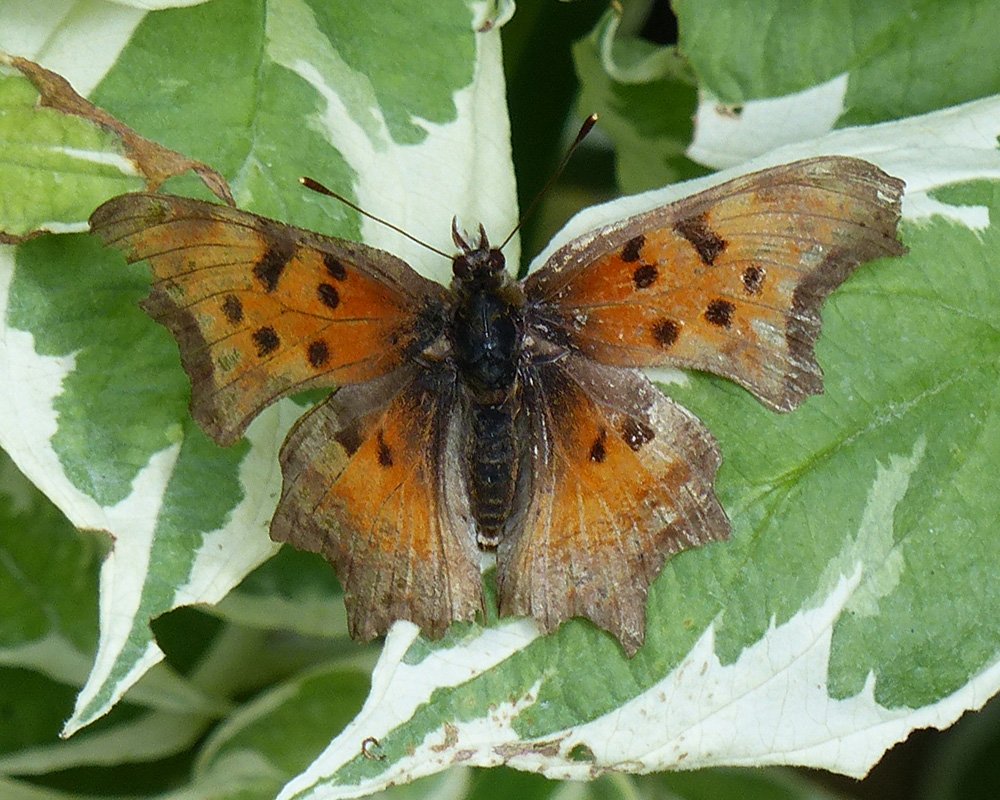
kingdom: Animalia
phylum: Arthropoda
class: Insecta
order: Lepidoptera
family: Nymphalidae
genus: Polygonia
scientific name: Polygonia gracilis
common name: Hoary Comma
